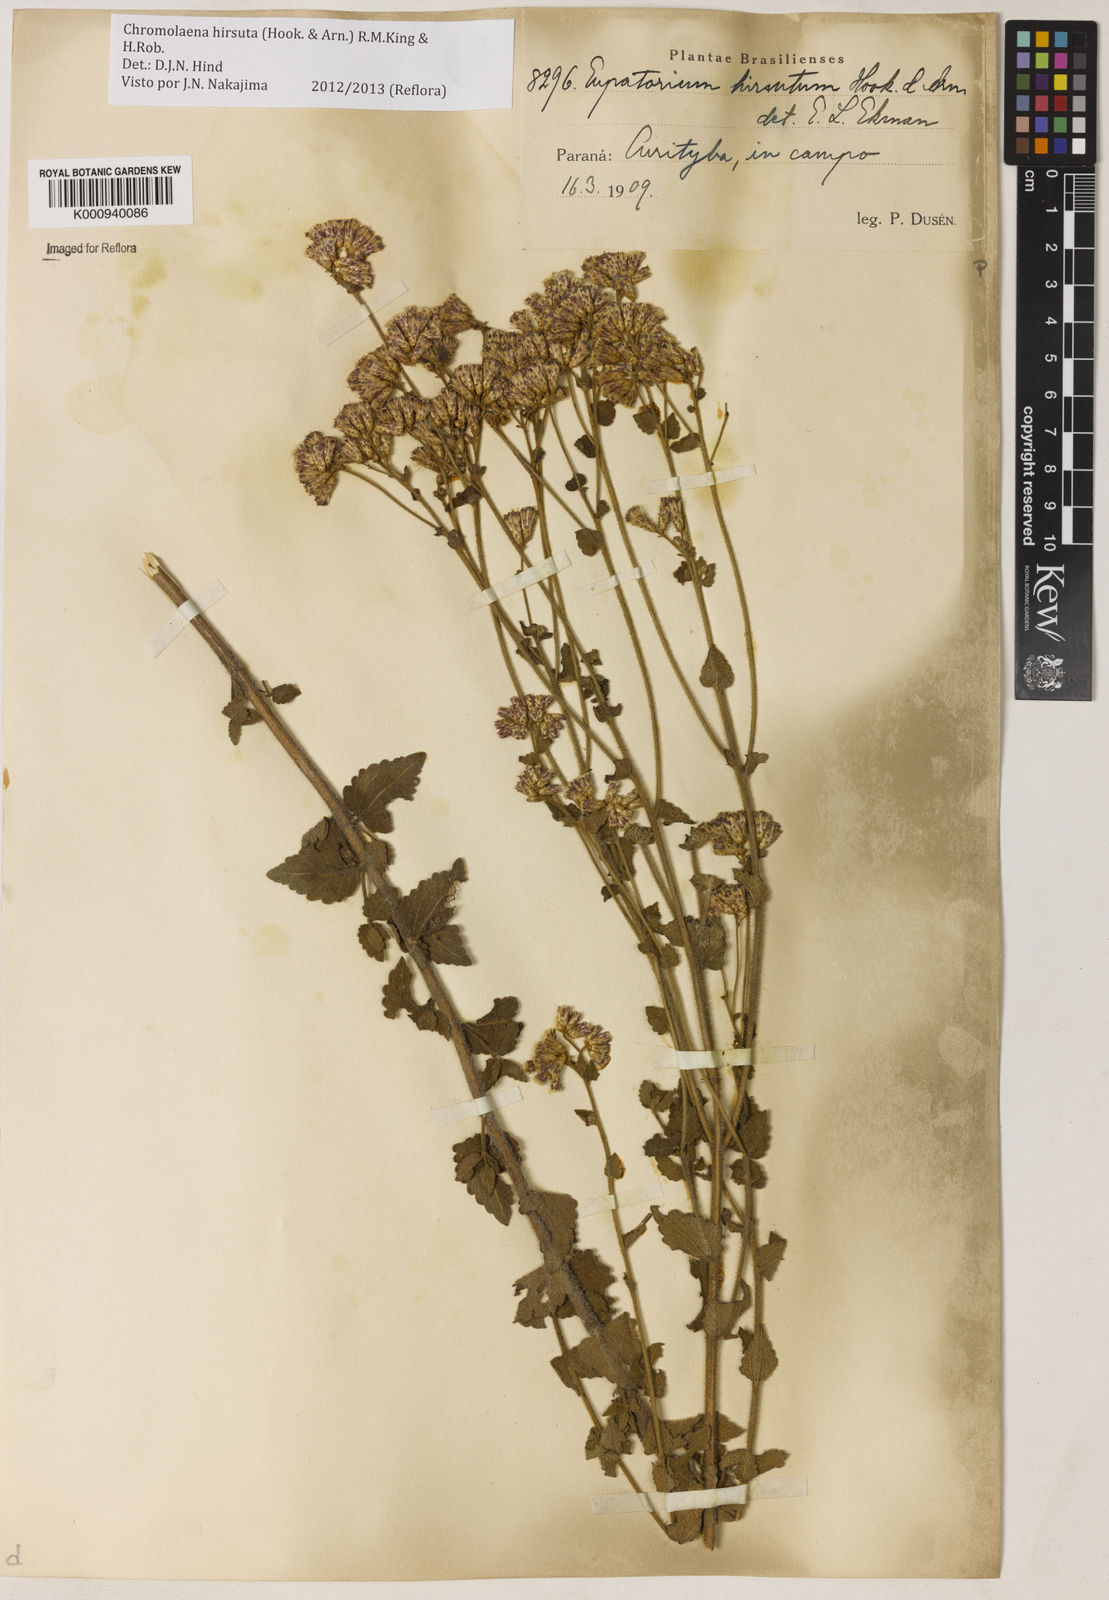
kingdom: Plantae
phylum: Tracheophyta
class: Magnoliopsida
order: Asterales
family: Asteraceae
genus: Chromolaena
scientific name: Chromolaena hirsuta
